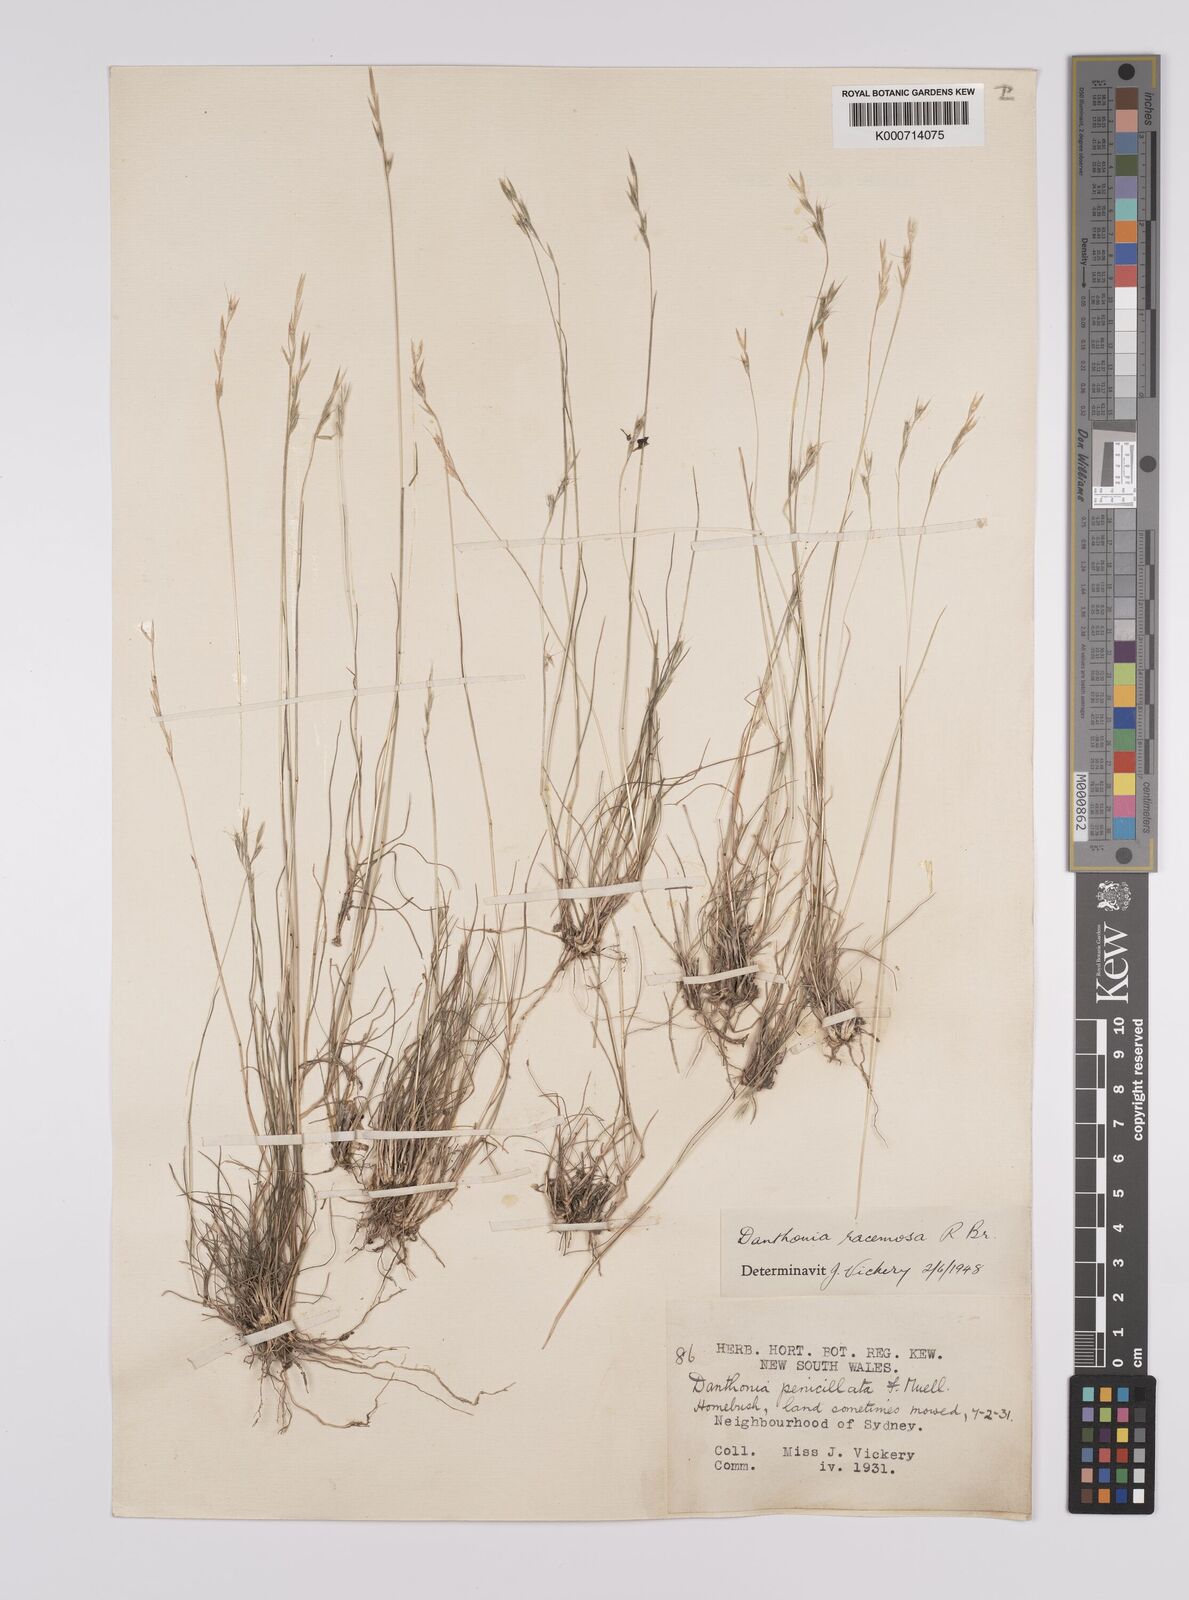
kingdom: Plantae
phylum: Tracheophyta
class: Liliopsida
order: Poales
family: Poaceae
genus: Rytidosperma
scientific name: Rytidosperma racemosum
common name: Wallaby-grass
